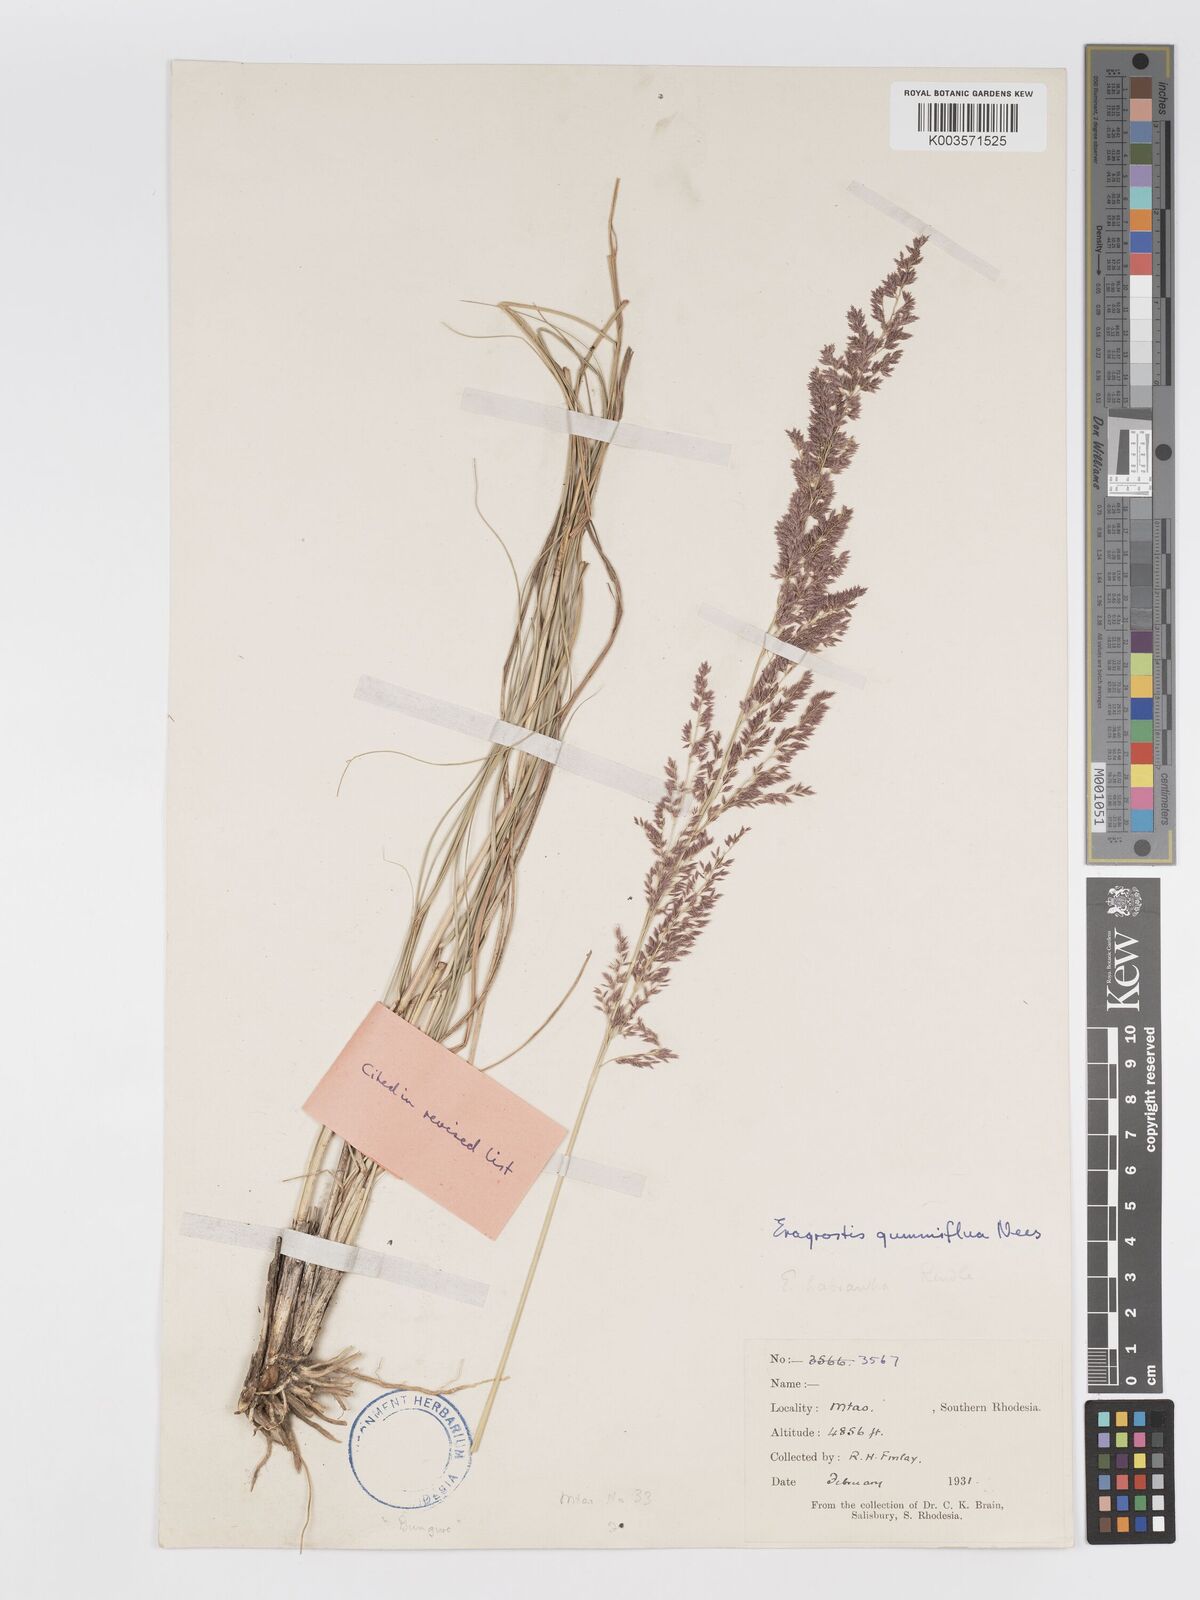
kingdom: Plantae
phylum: Tracheophyta
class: Liliopsida
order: Poales
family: Poaceae
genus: Eragrostis
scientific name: Eragrostis gummiflua
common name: Gum grass
